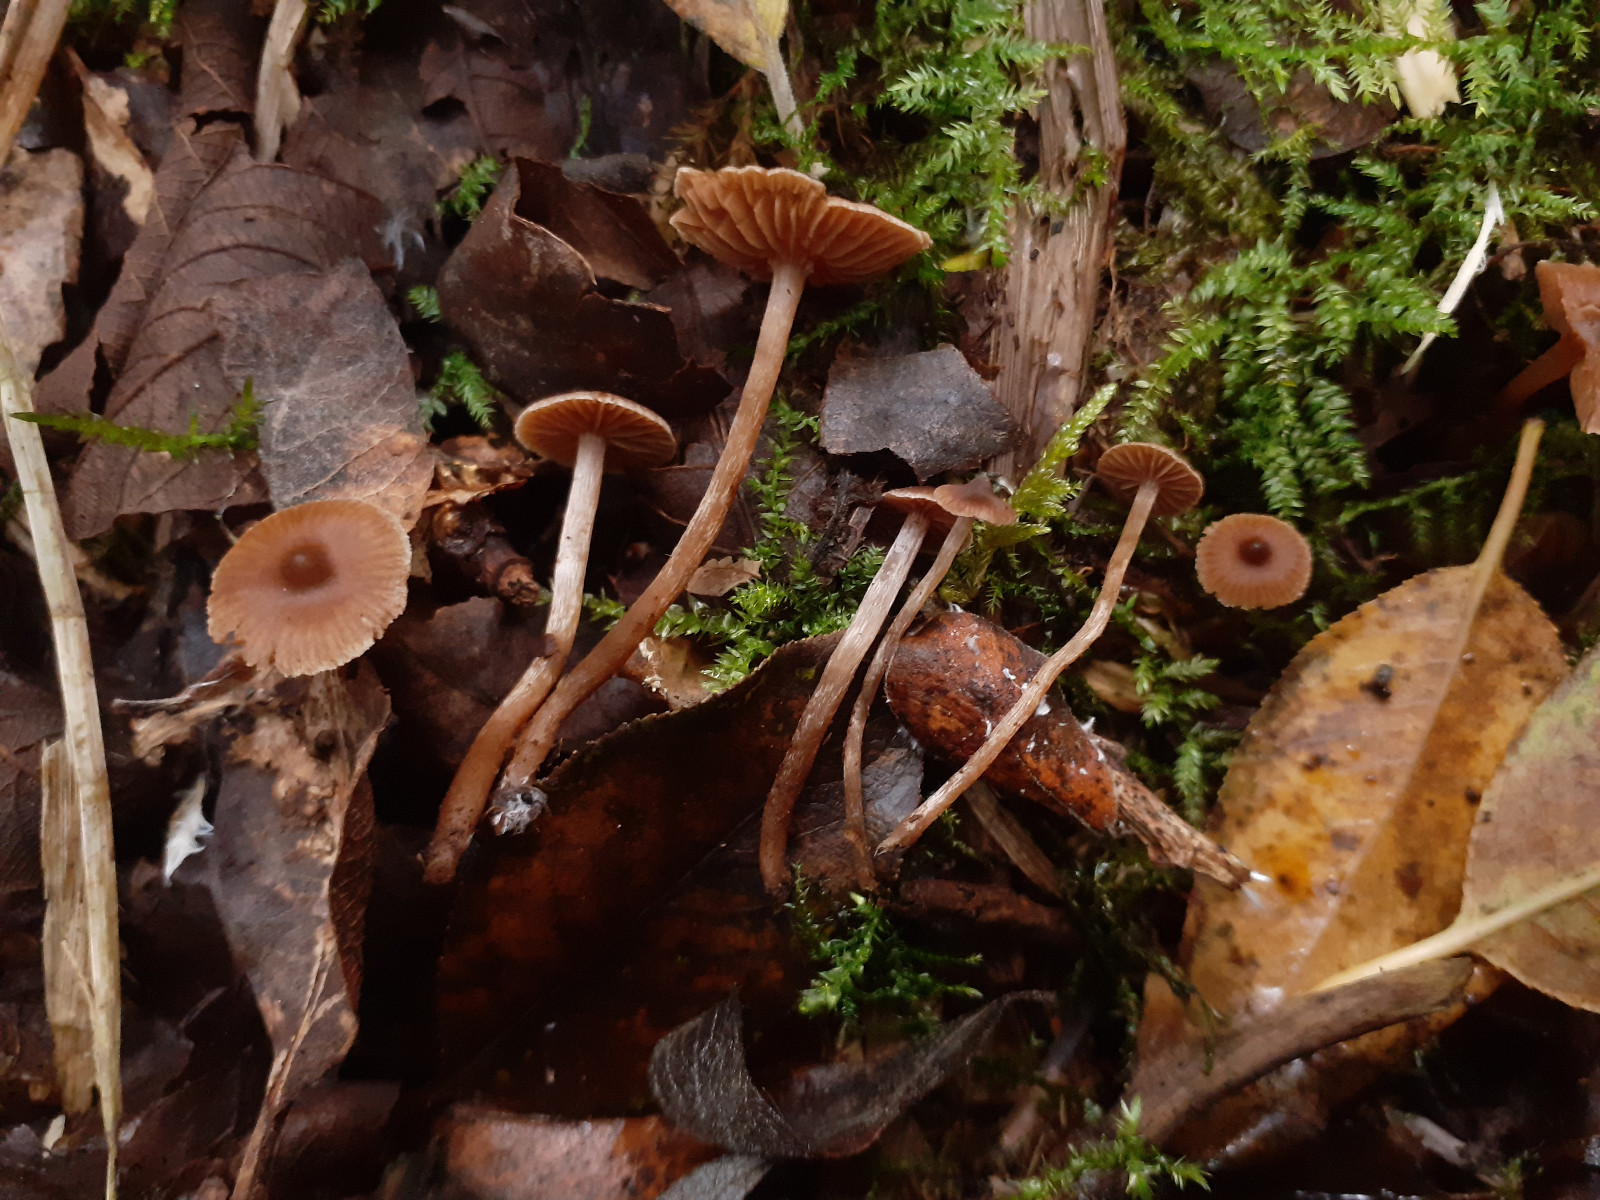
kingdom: Fungi
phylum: Basidiomycota
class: Agaricomycetes
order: Agaricales
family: Cortinariaceae
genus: Cortinarius
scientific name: Cortinarius paululus
